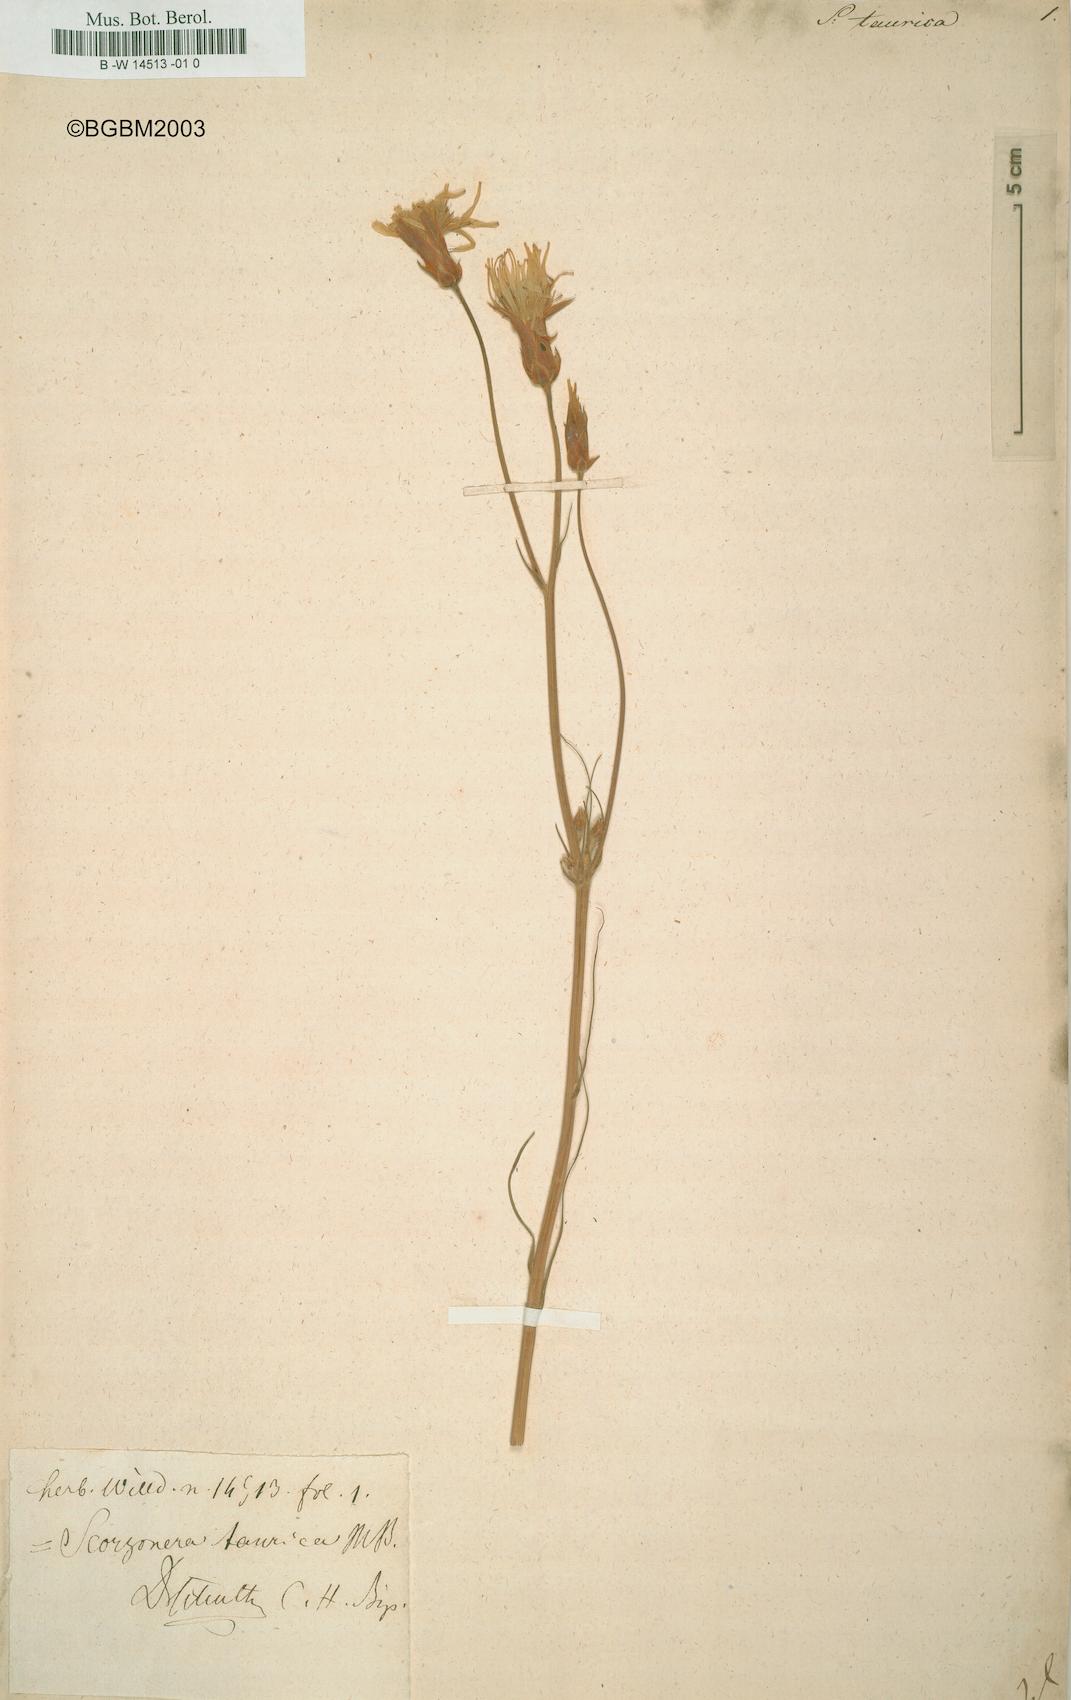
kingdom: Plantae
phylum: Tracheophyta
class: Magnoliopsida
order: Asterales
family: Asteraceae
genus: Pseudopodospermum
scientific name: Pseudopodospermum tauricum
